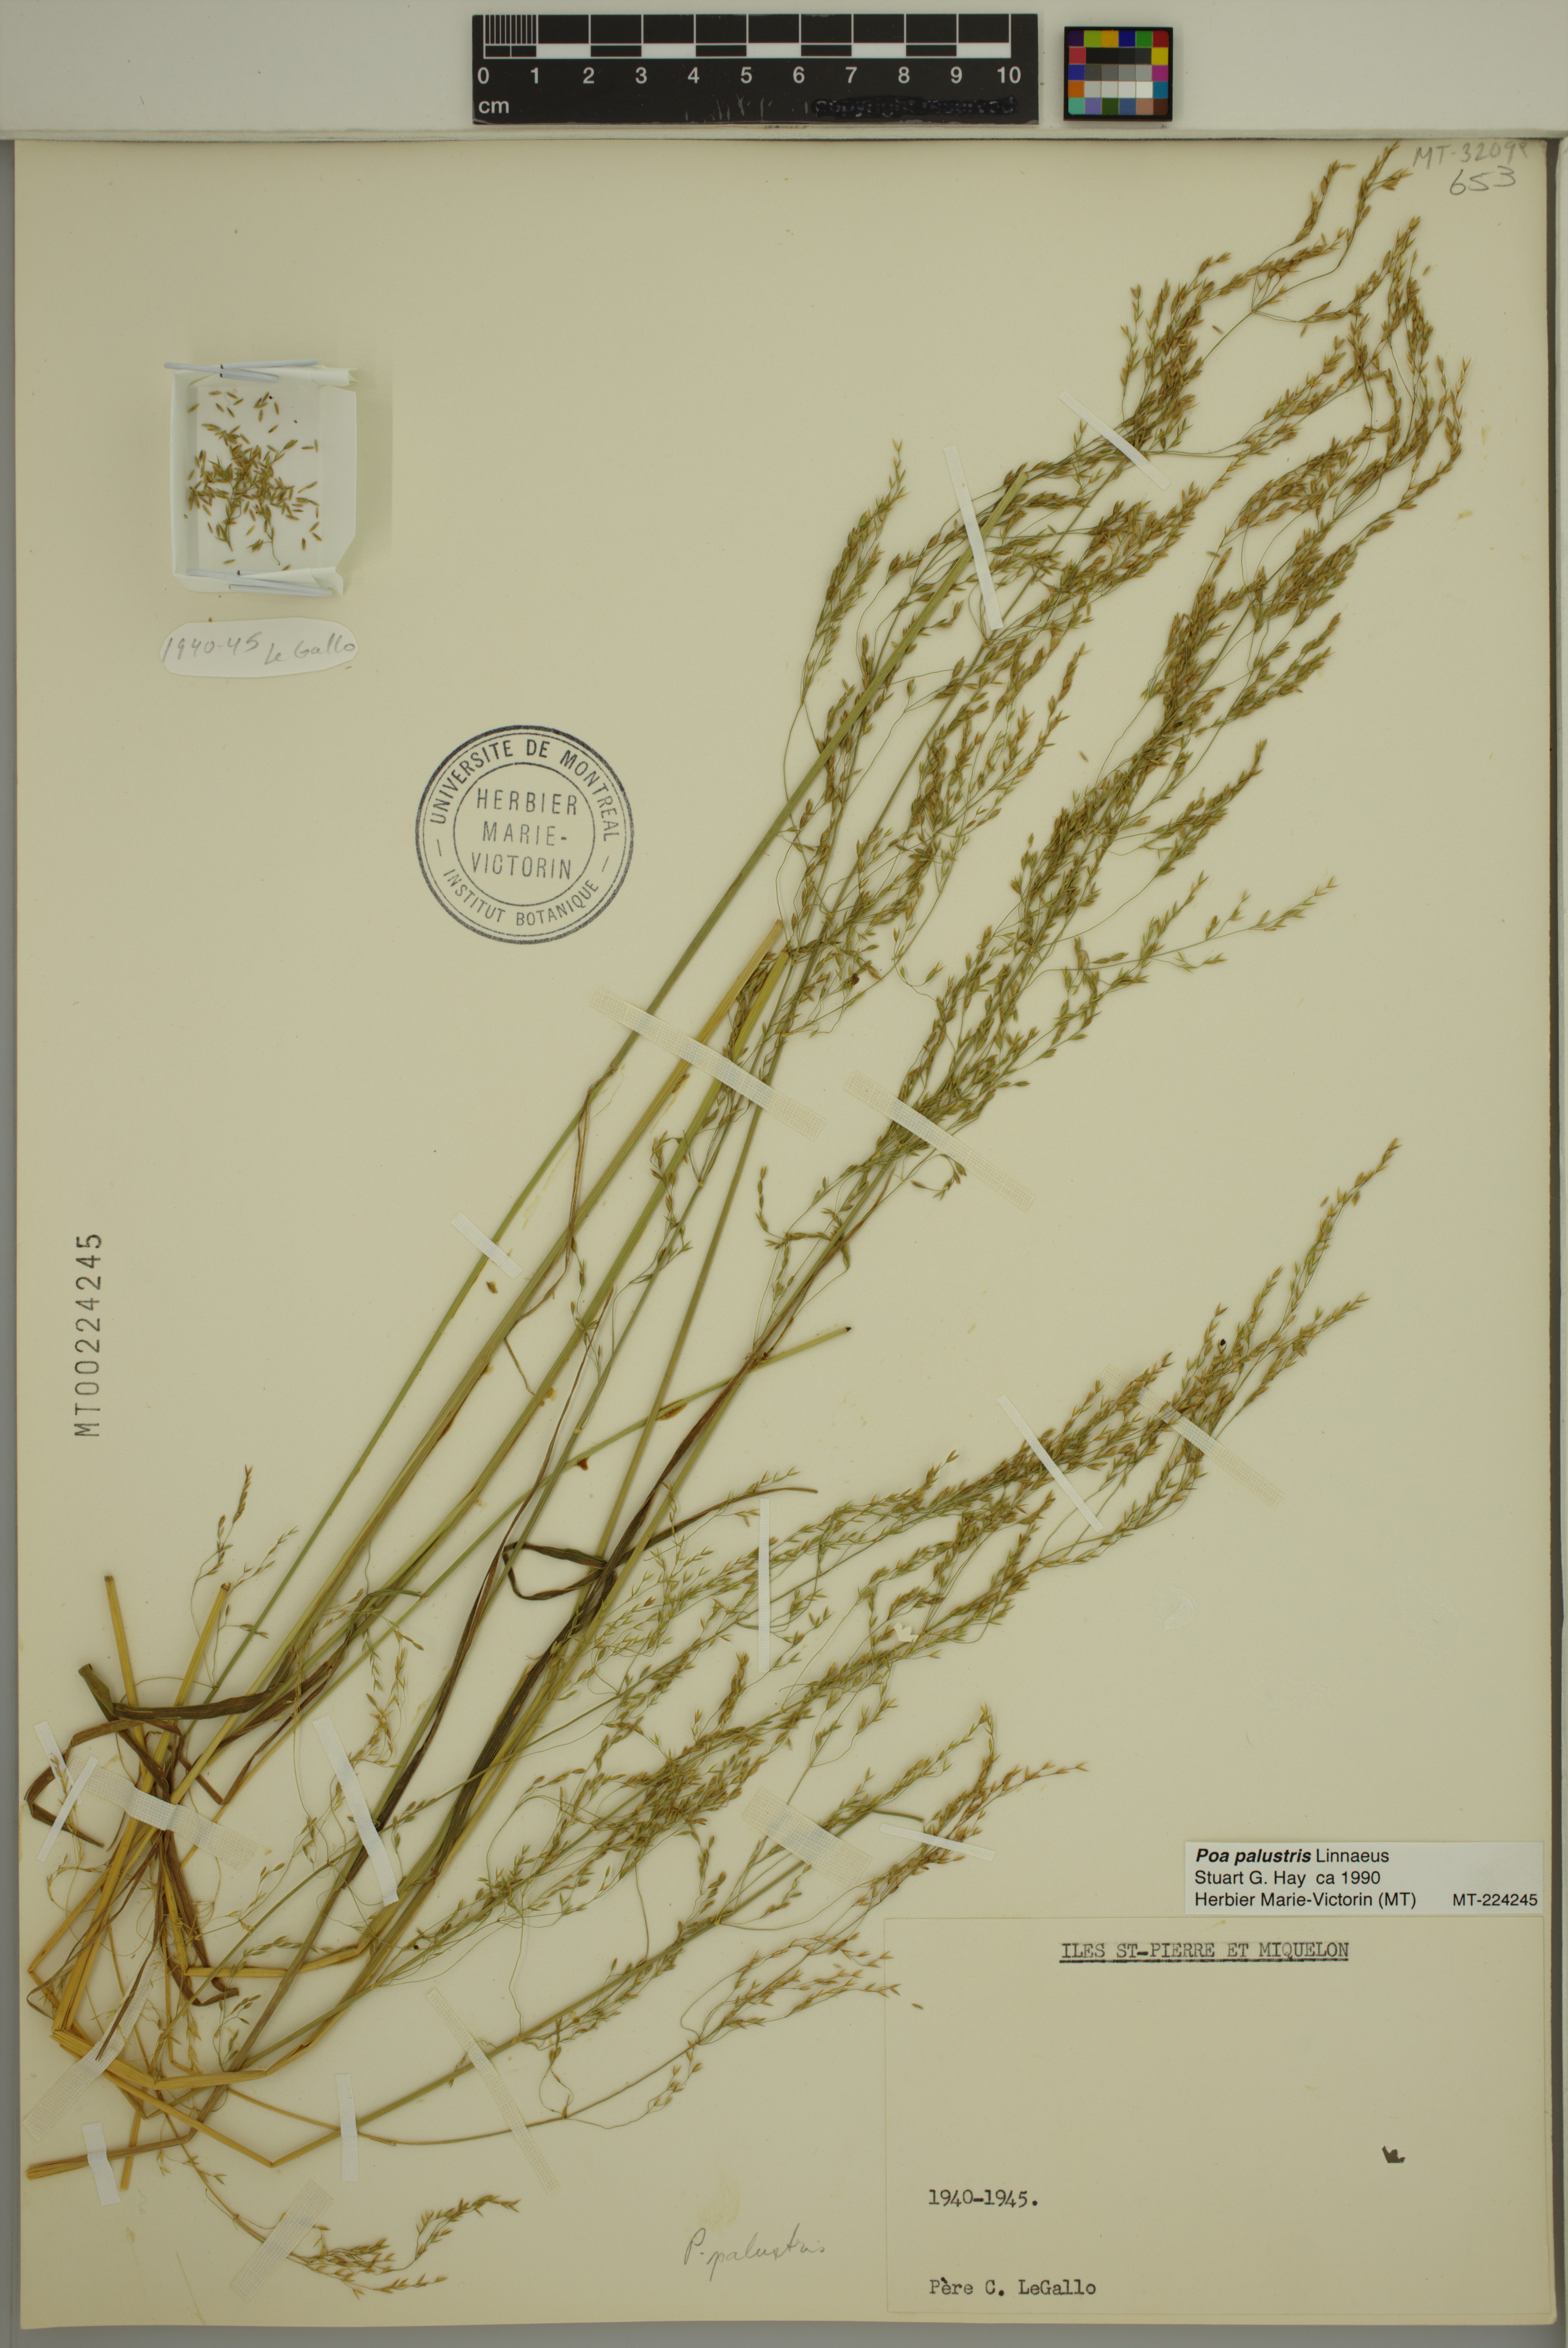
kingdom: Plantae
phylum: Tracheophyta
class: Liliopsida
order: Poales
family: Poaceae
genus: Poa
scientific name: Poa palustris
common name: Swamp meadow-grass
